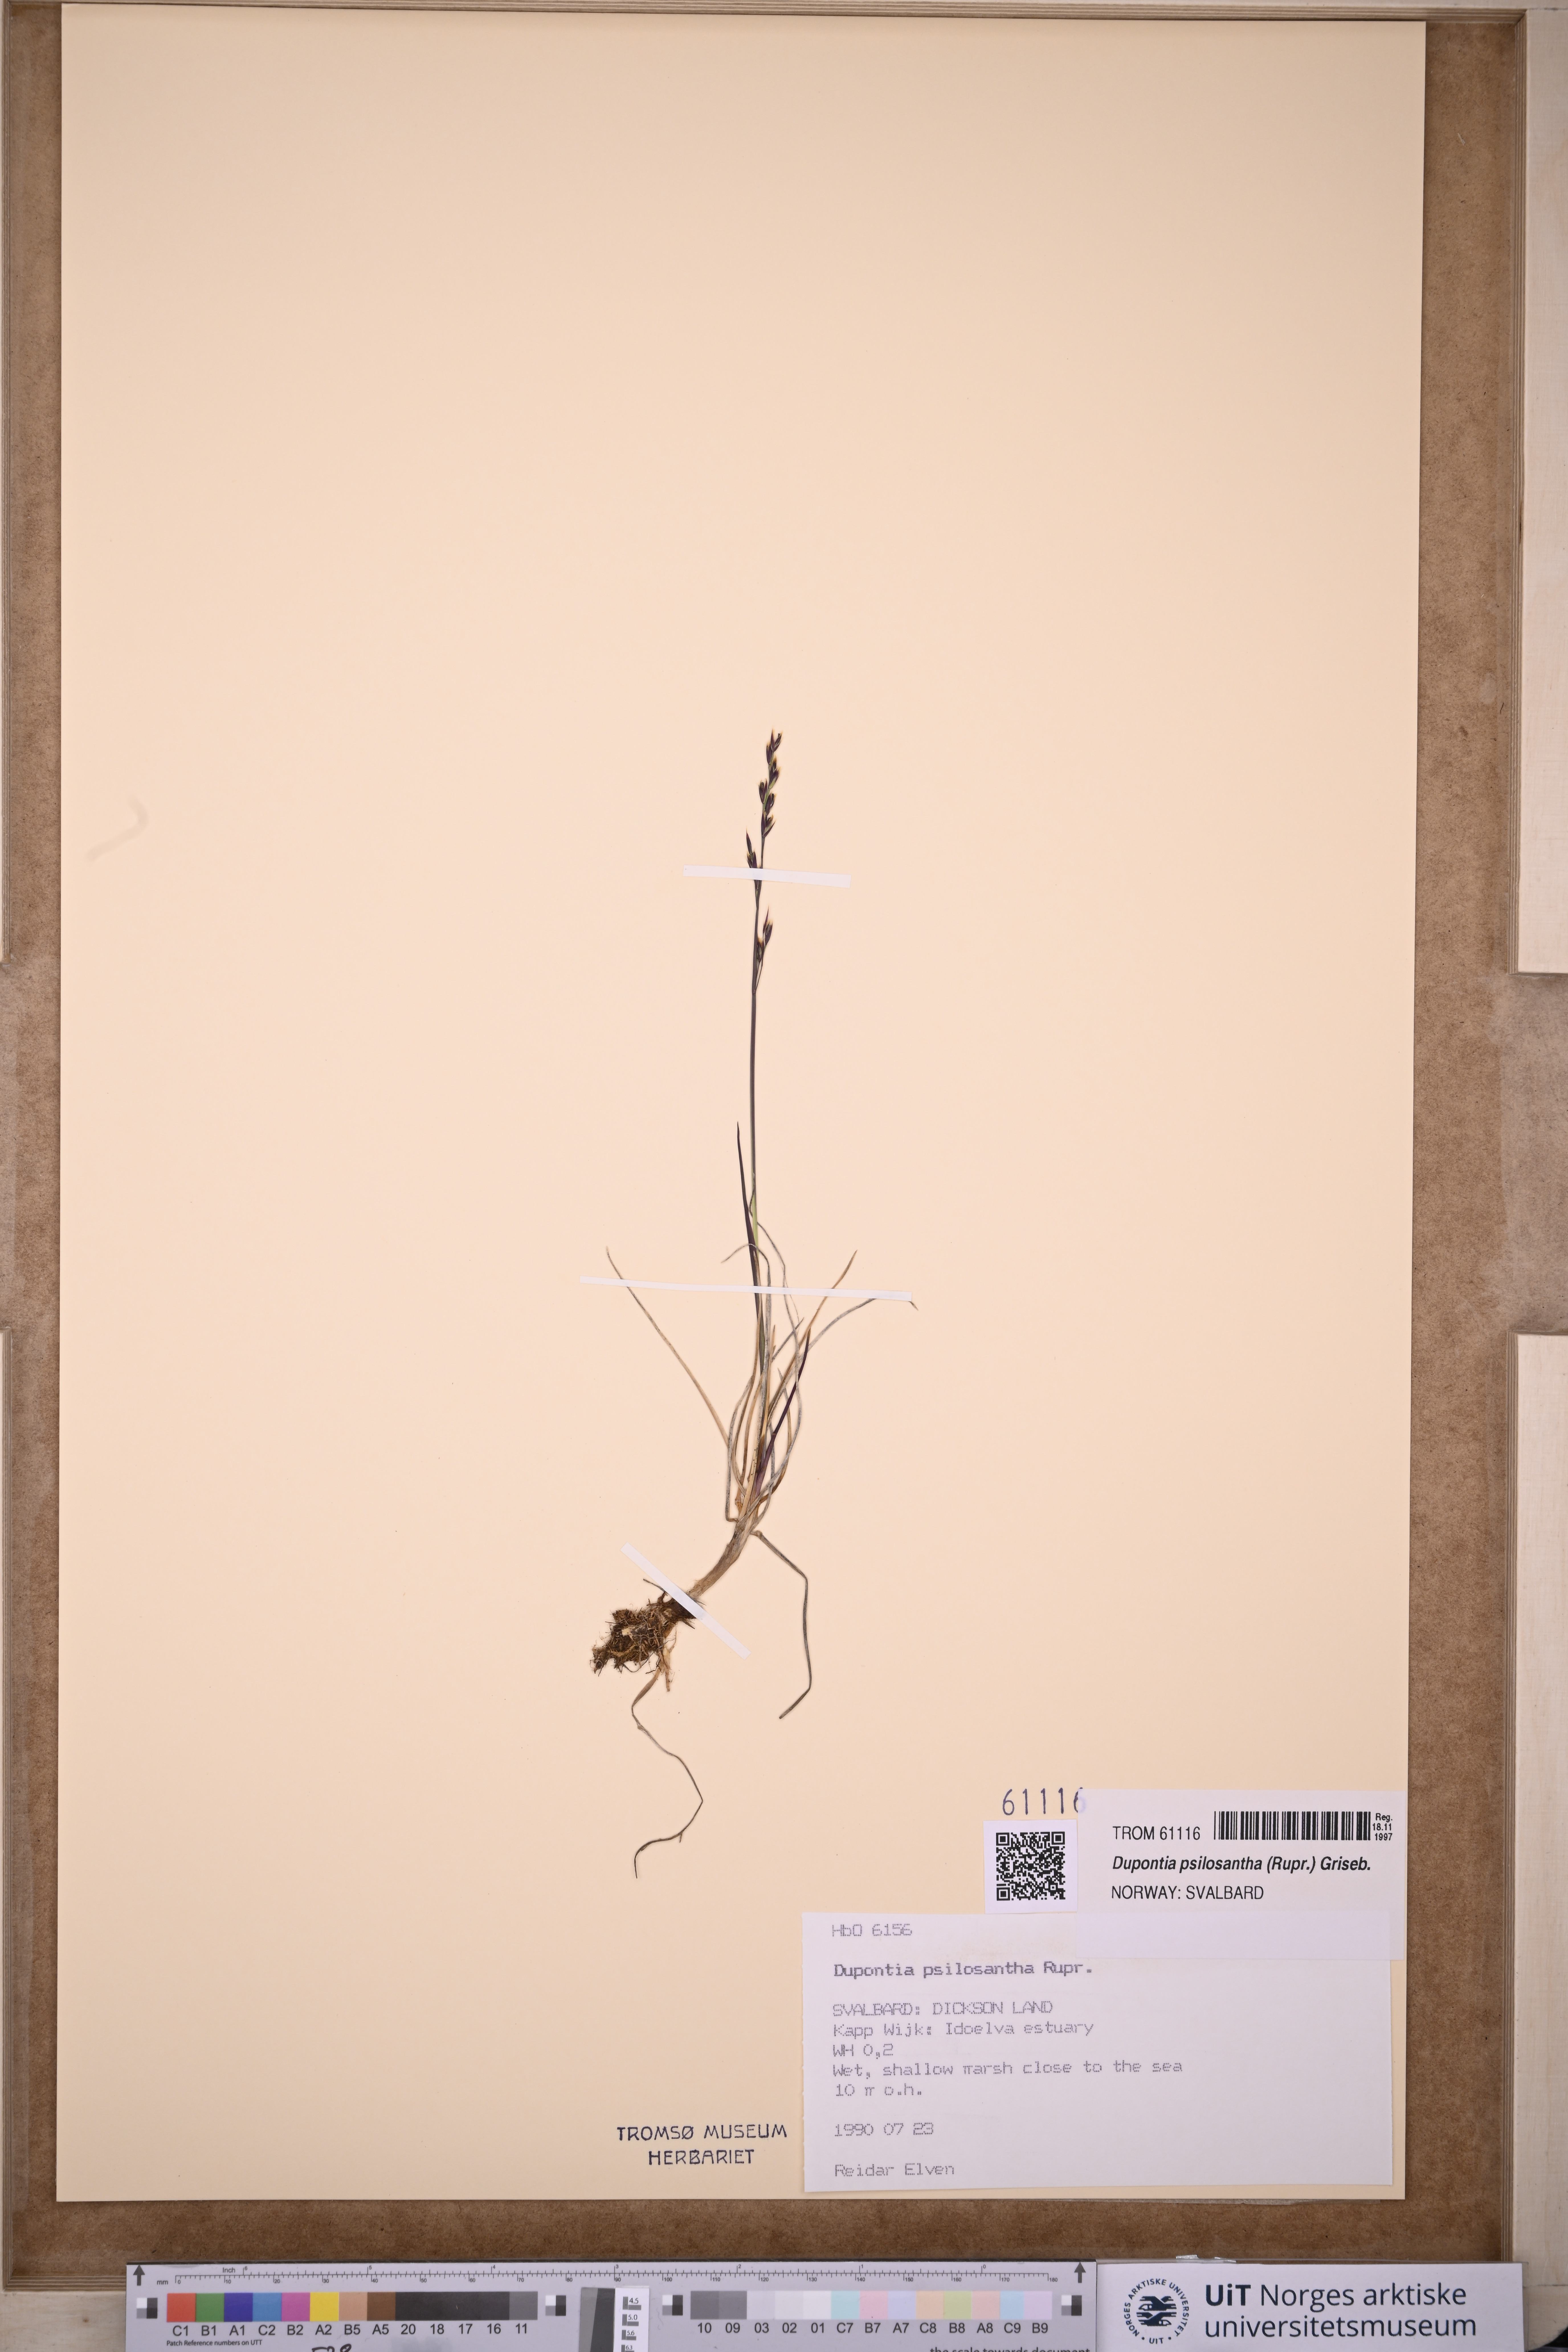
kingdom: Plantae
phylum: Tracheophyta
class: Liliopsida
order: Poales
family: Poaceae
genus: Dupontia
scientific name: Dupontia fisheri
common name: Tundra grass
